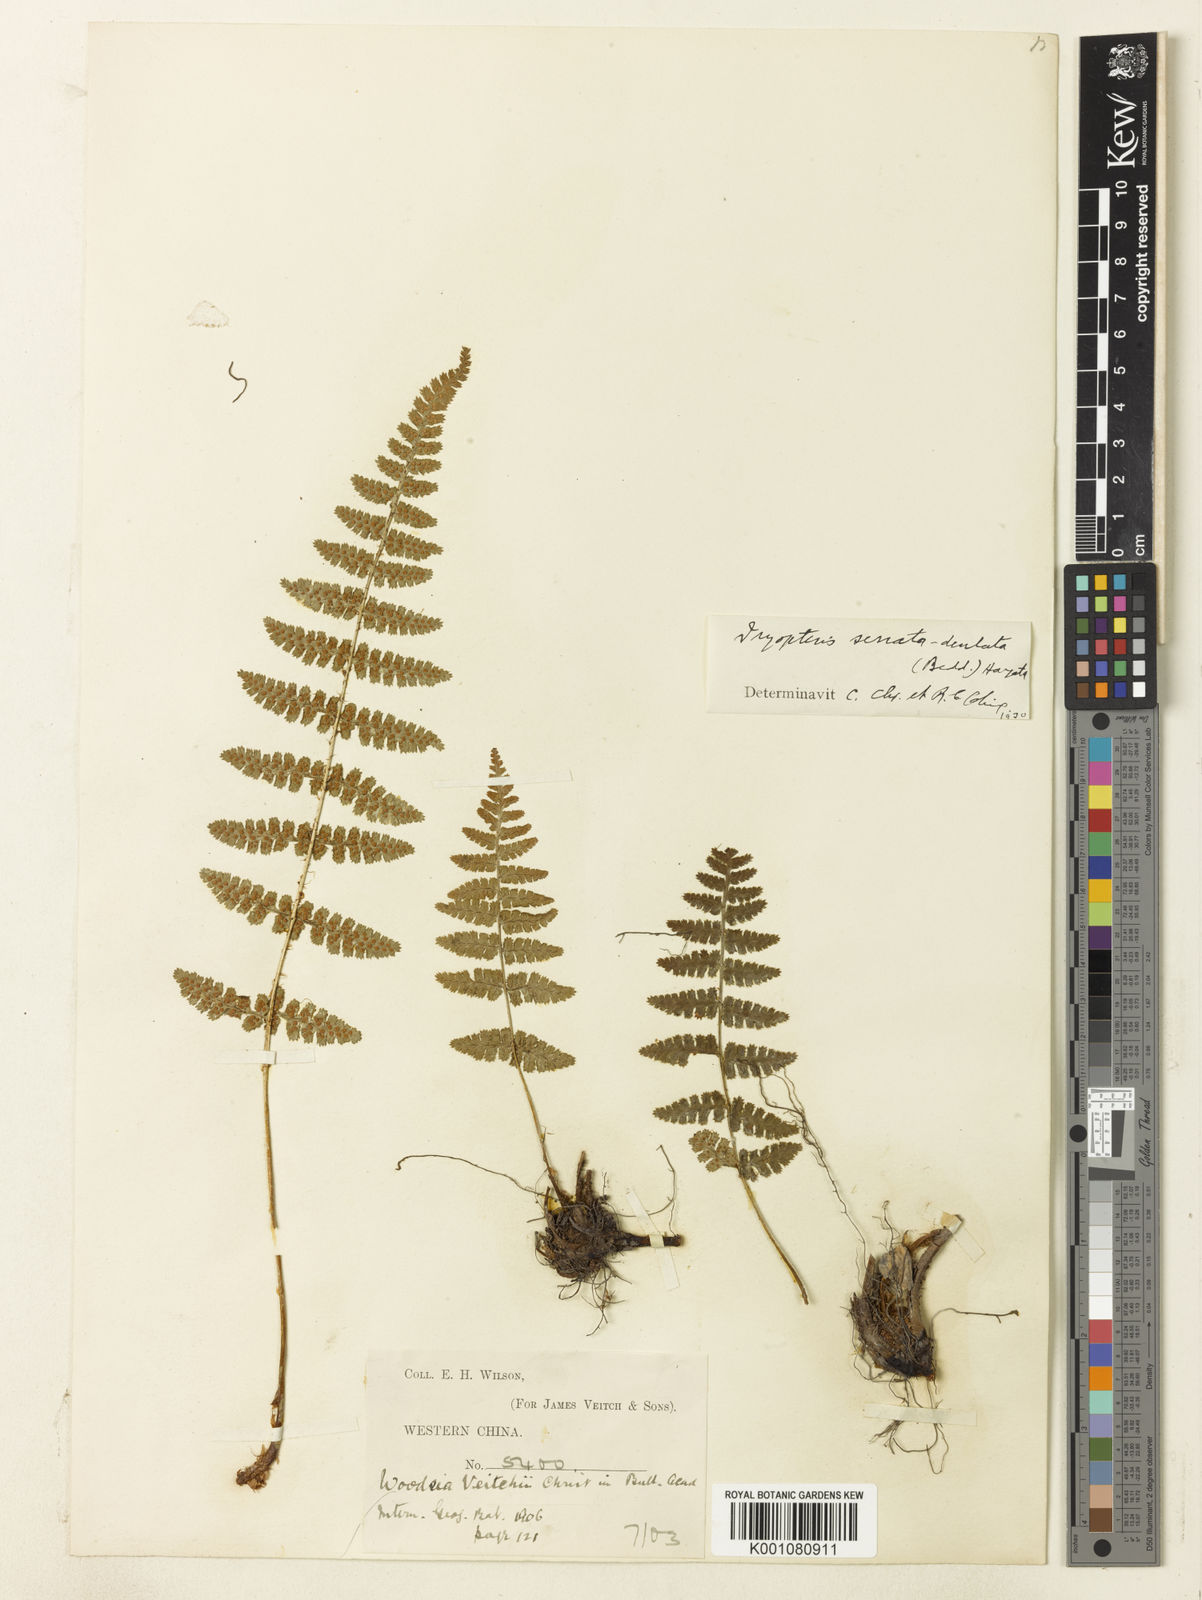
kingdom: Plantae
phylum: Tracheophyta
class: Polypodiopsida
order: Polypodiales
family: Dryopteridaceae
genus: Dryopteris
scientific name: Dryopteris sericea
